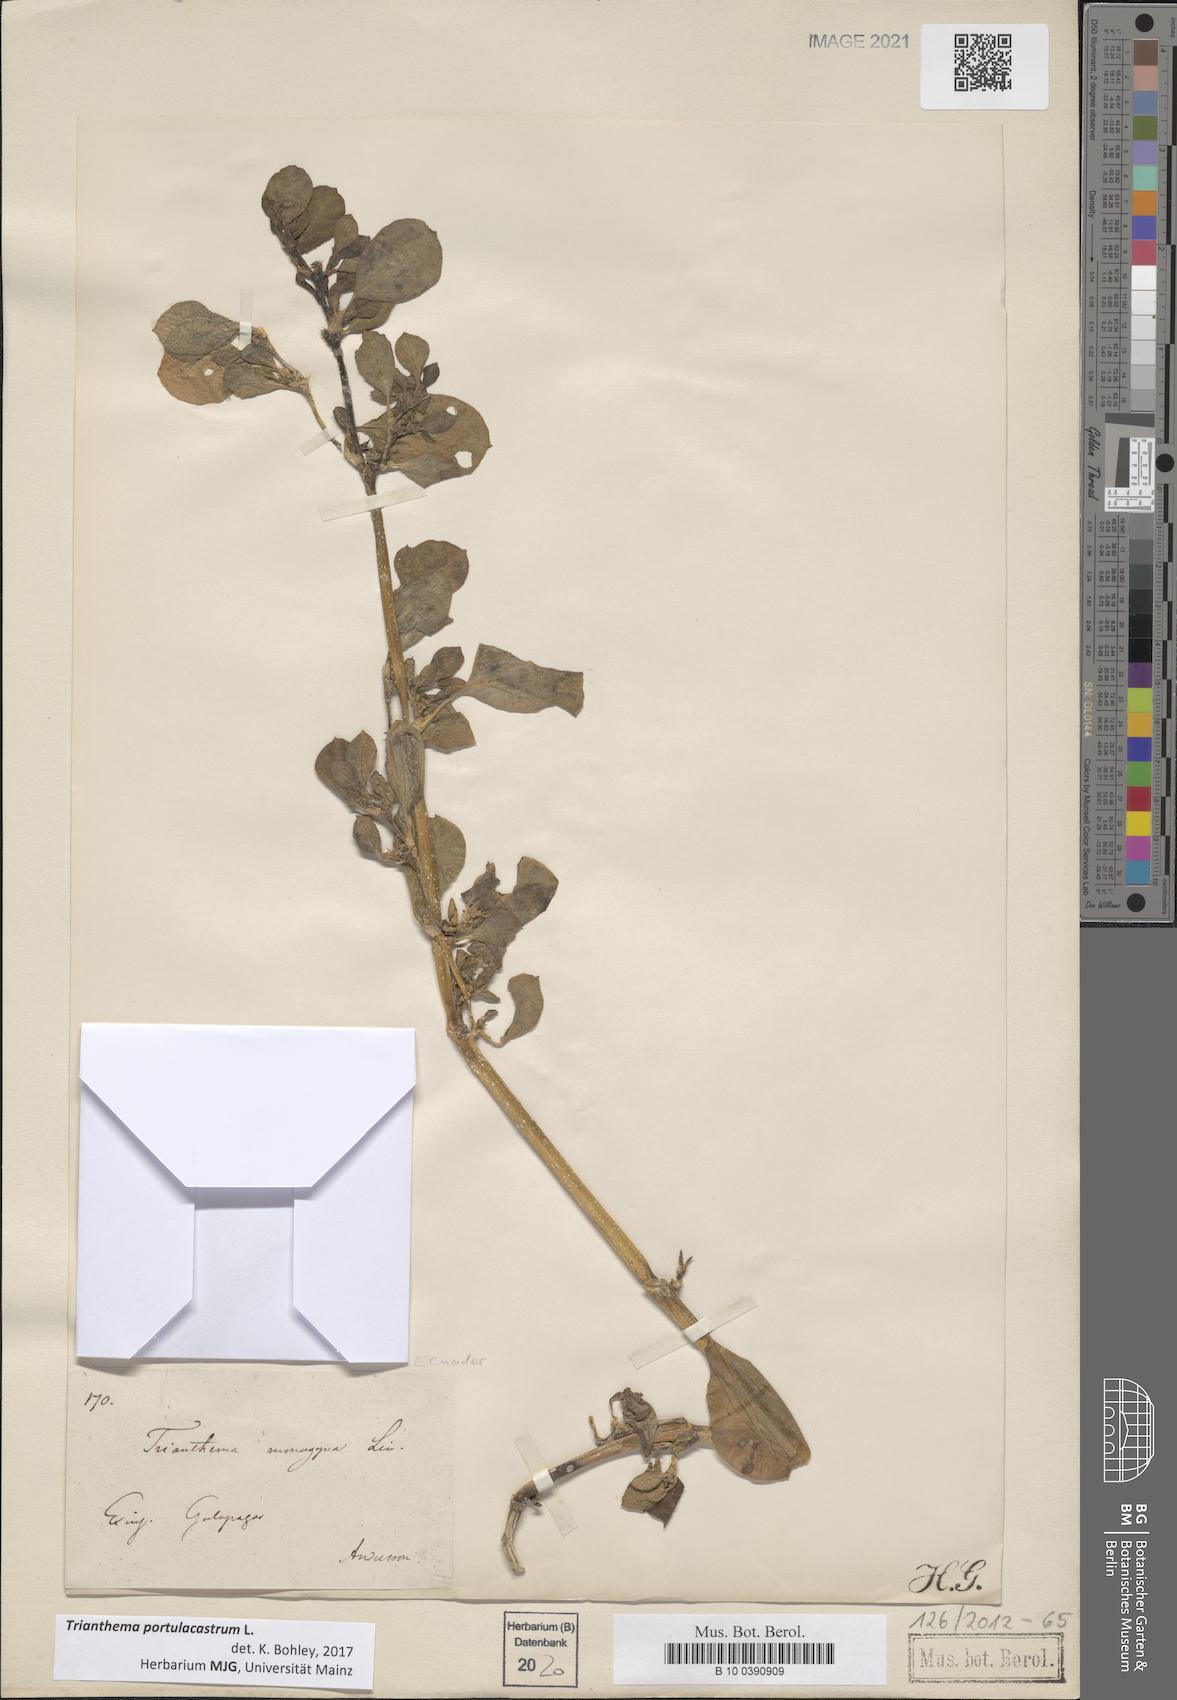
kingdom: Plantae
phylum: Tracheophyta
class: Magnoliopsida
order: Caryophyllales
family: Aizoaceae
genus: Trianthema
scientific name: Trianthema portulacastrum
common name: Desert horsepurslane
